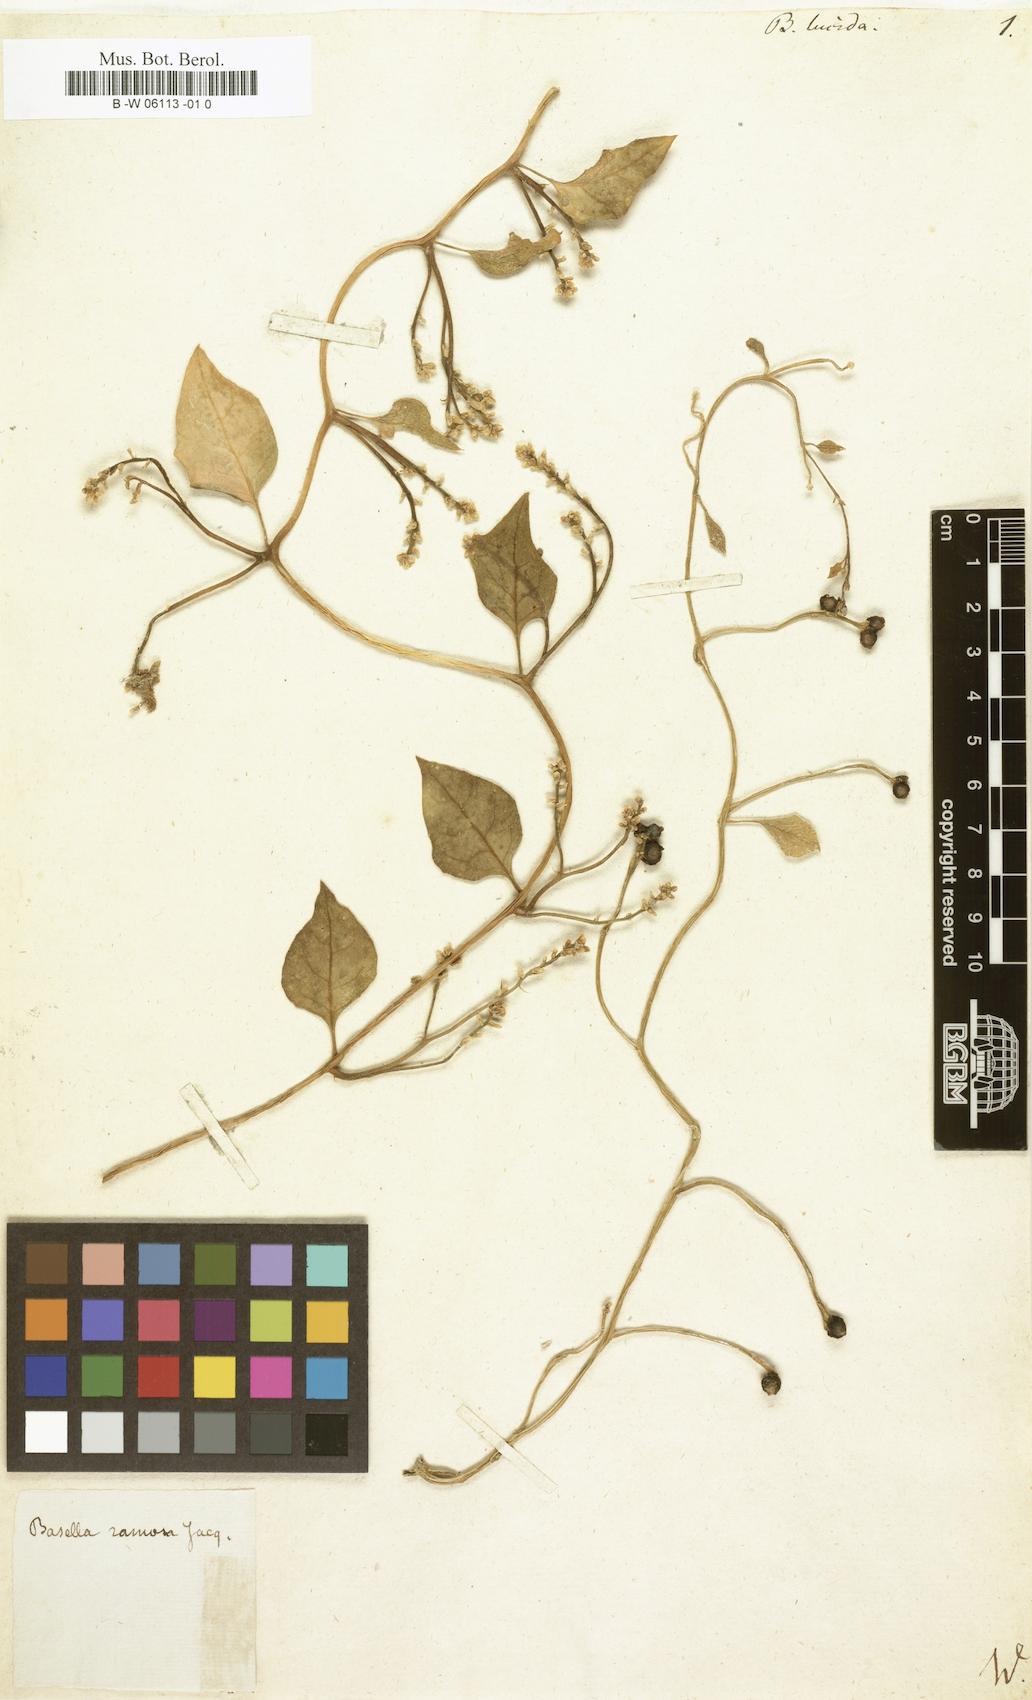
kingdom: Plantae
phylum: Tracheophyta
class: Magnoliopsida
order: Caryophyllales
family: Basellaceae
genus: Basella
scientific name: Basella alba
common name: Indian spinach
